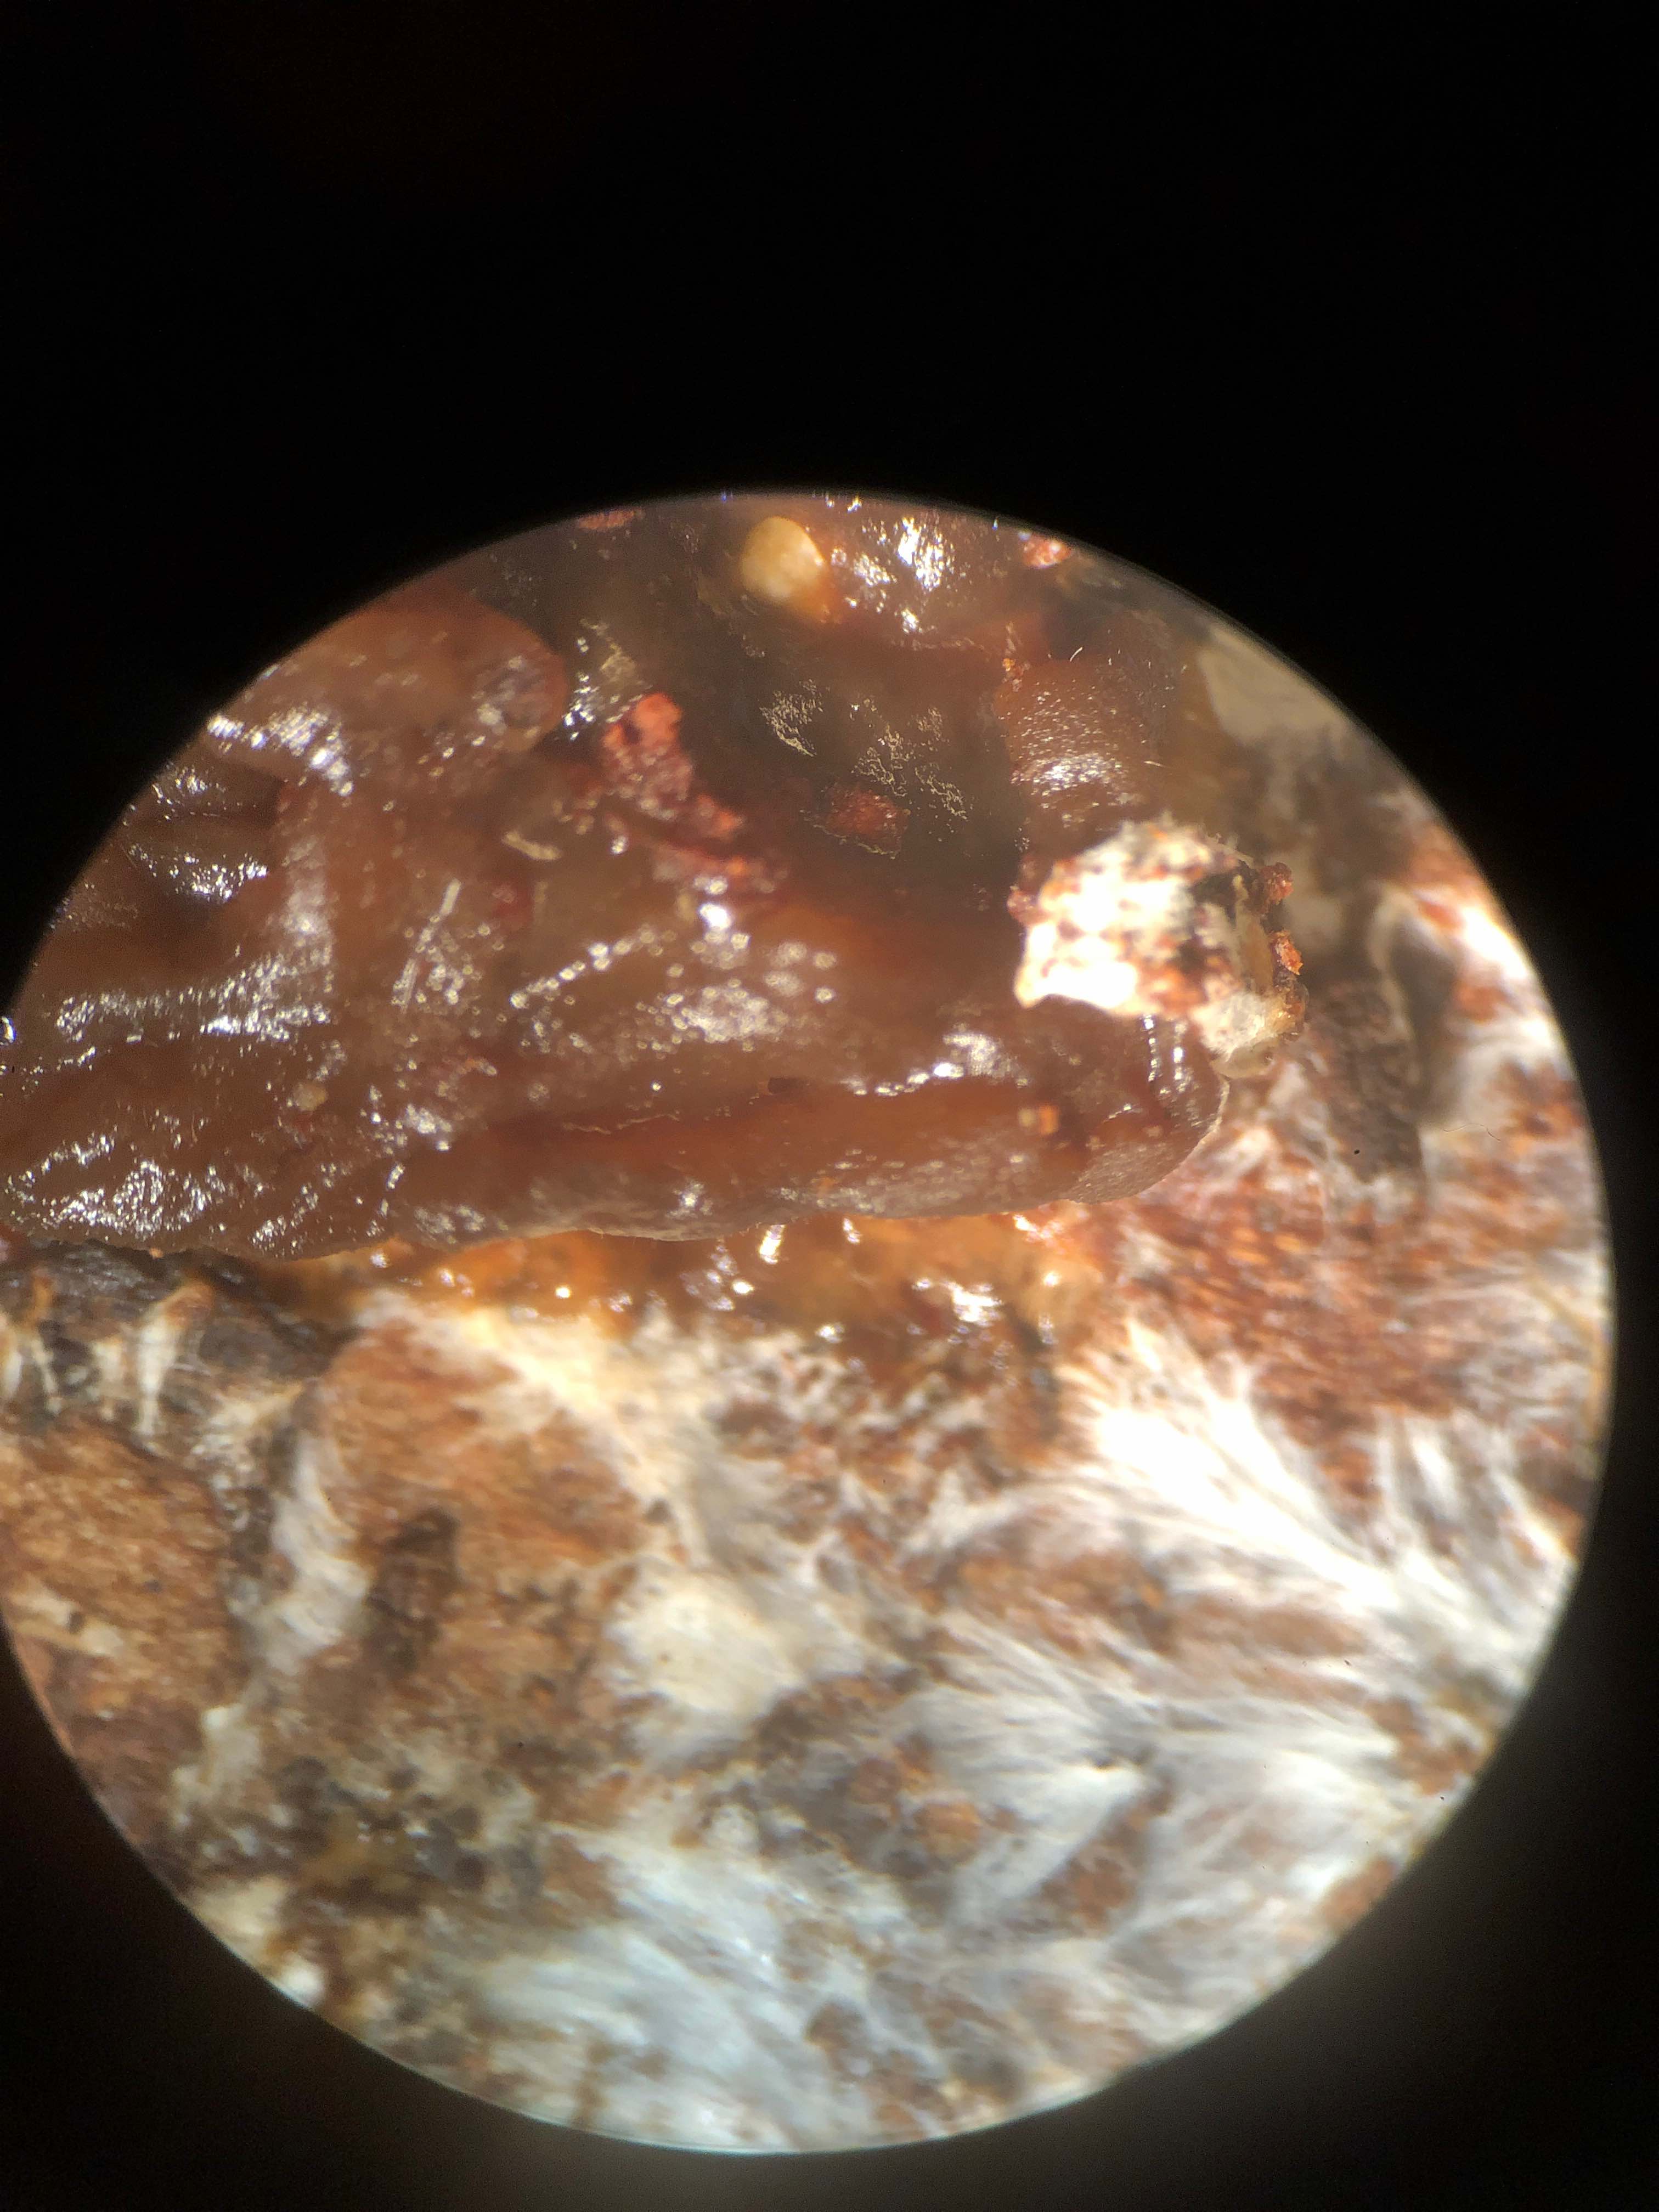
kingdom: Fungi
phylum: Basidiomycota
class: Tremellomycetes
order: Tremellales
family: Tremellaceae
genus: Phaeotremella
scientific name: Phaeotremella foliacea
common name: brun bævresvamp
